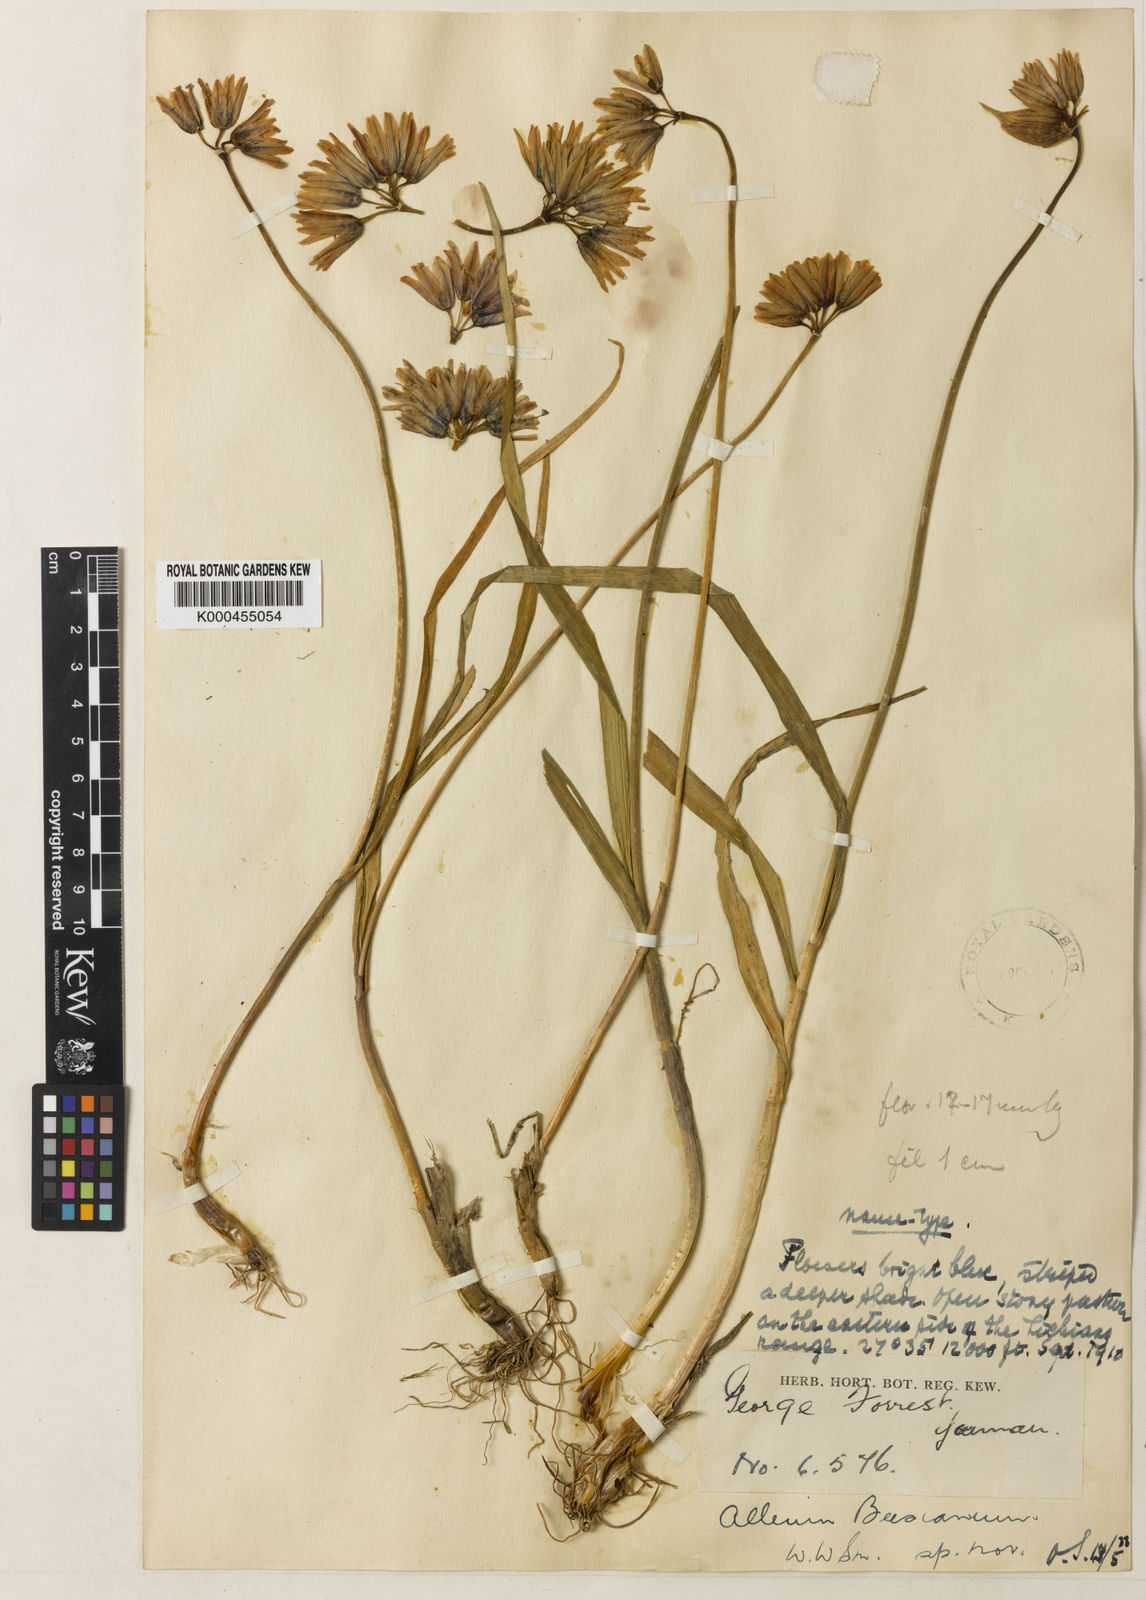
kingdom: Plantae
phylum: Tracheophyta
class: Liliopsida
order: Asparagales
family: Amaryllidaceae
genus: Allium
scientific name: Allium beesianum
